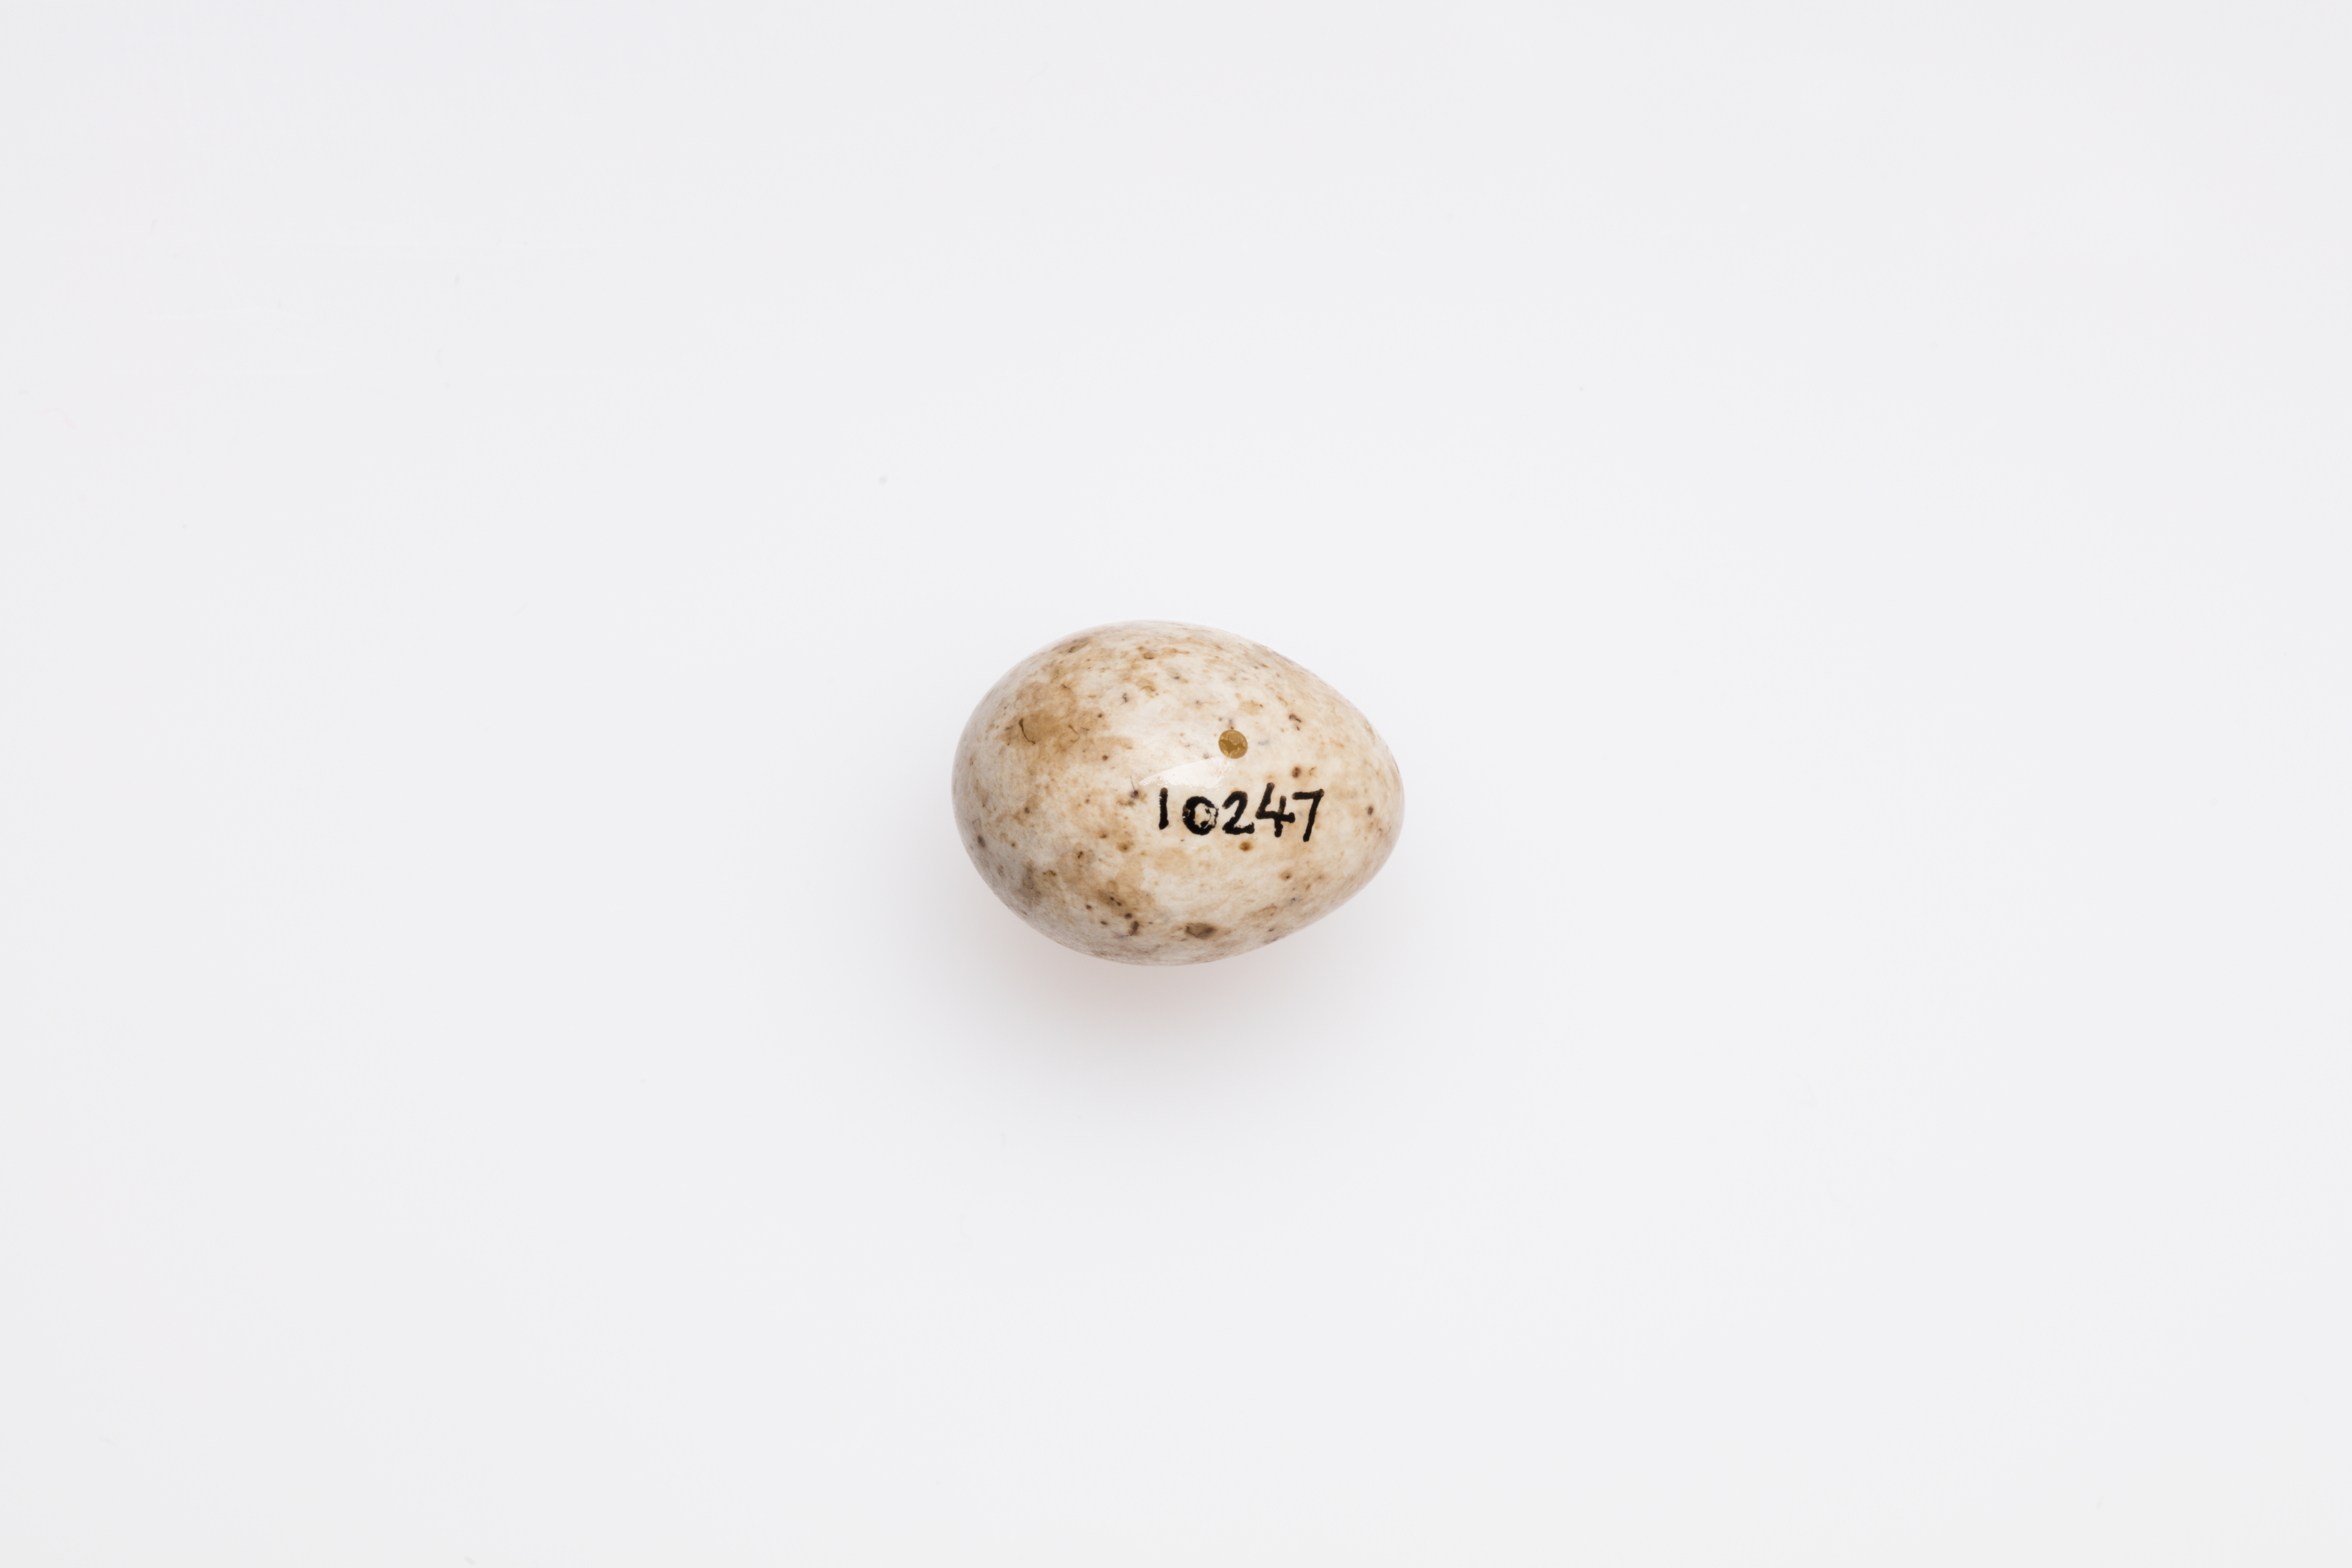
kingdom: Animalia
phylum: Chordata
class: Aves
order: Passeriformes
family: Sylviidae
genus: Sylvia
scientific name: Sylvia atricapilla
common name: Eurasian blackcap
